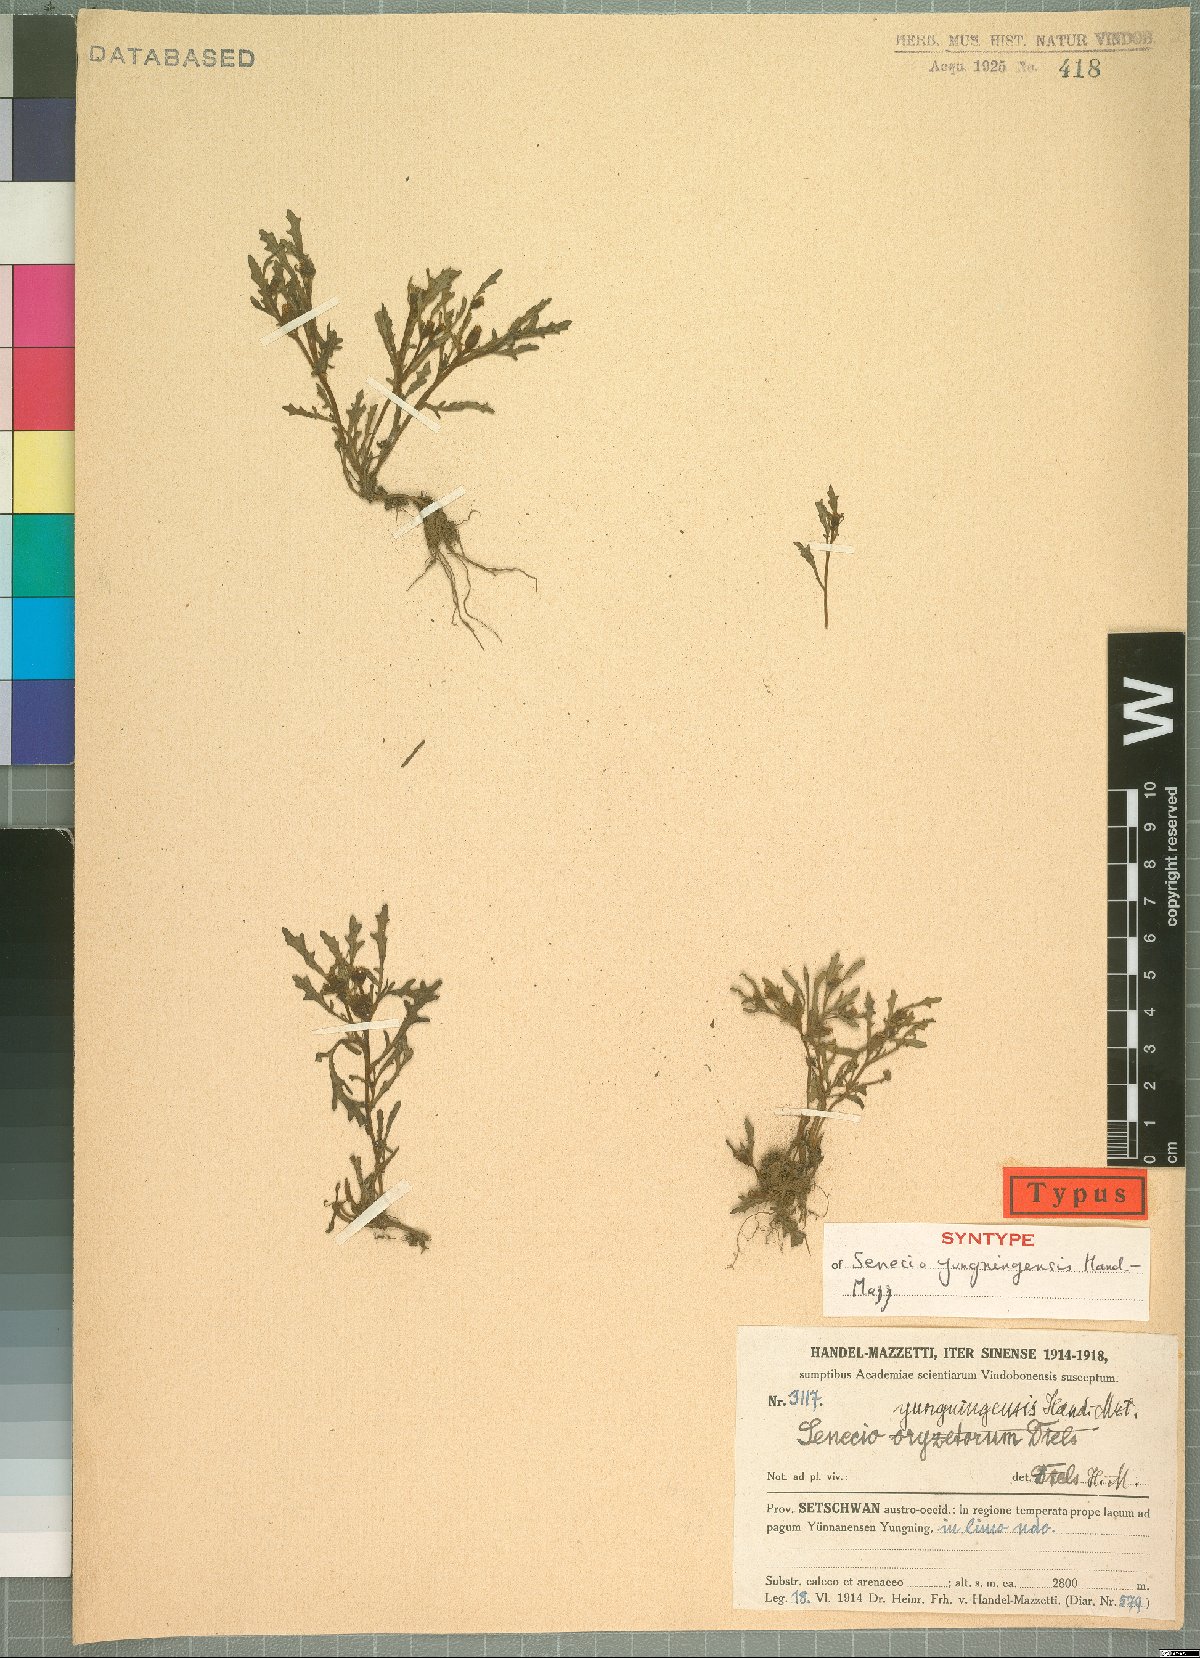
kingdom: Plantae
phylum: Tracheophyta
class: Magnoliopsida
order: Asterales
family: Asteraceae
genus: Senecio
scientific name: Senecio yungningensis
